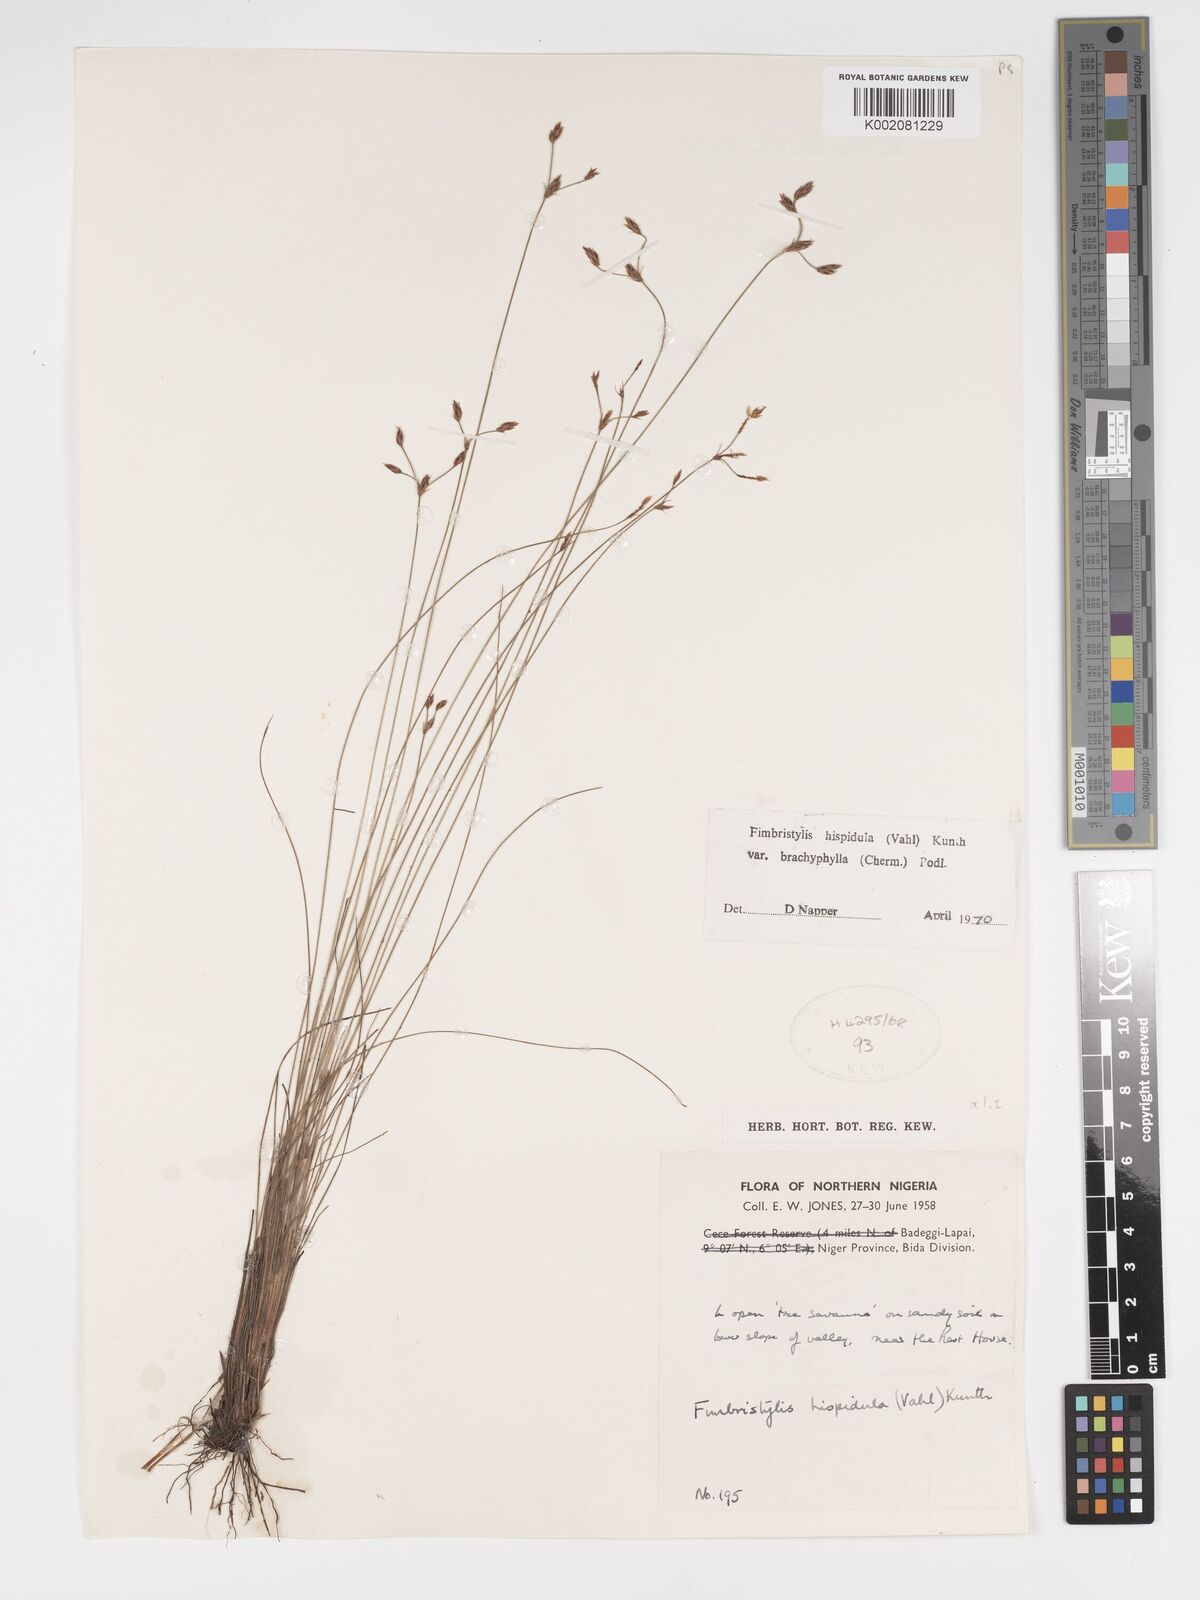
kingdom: Plantae
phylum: Tracheophyta
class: Liliopsida
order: Poales
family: Cyperaceae
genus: Bulbostylis
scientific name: Bulbostylis hispidula
